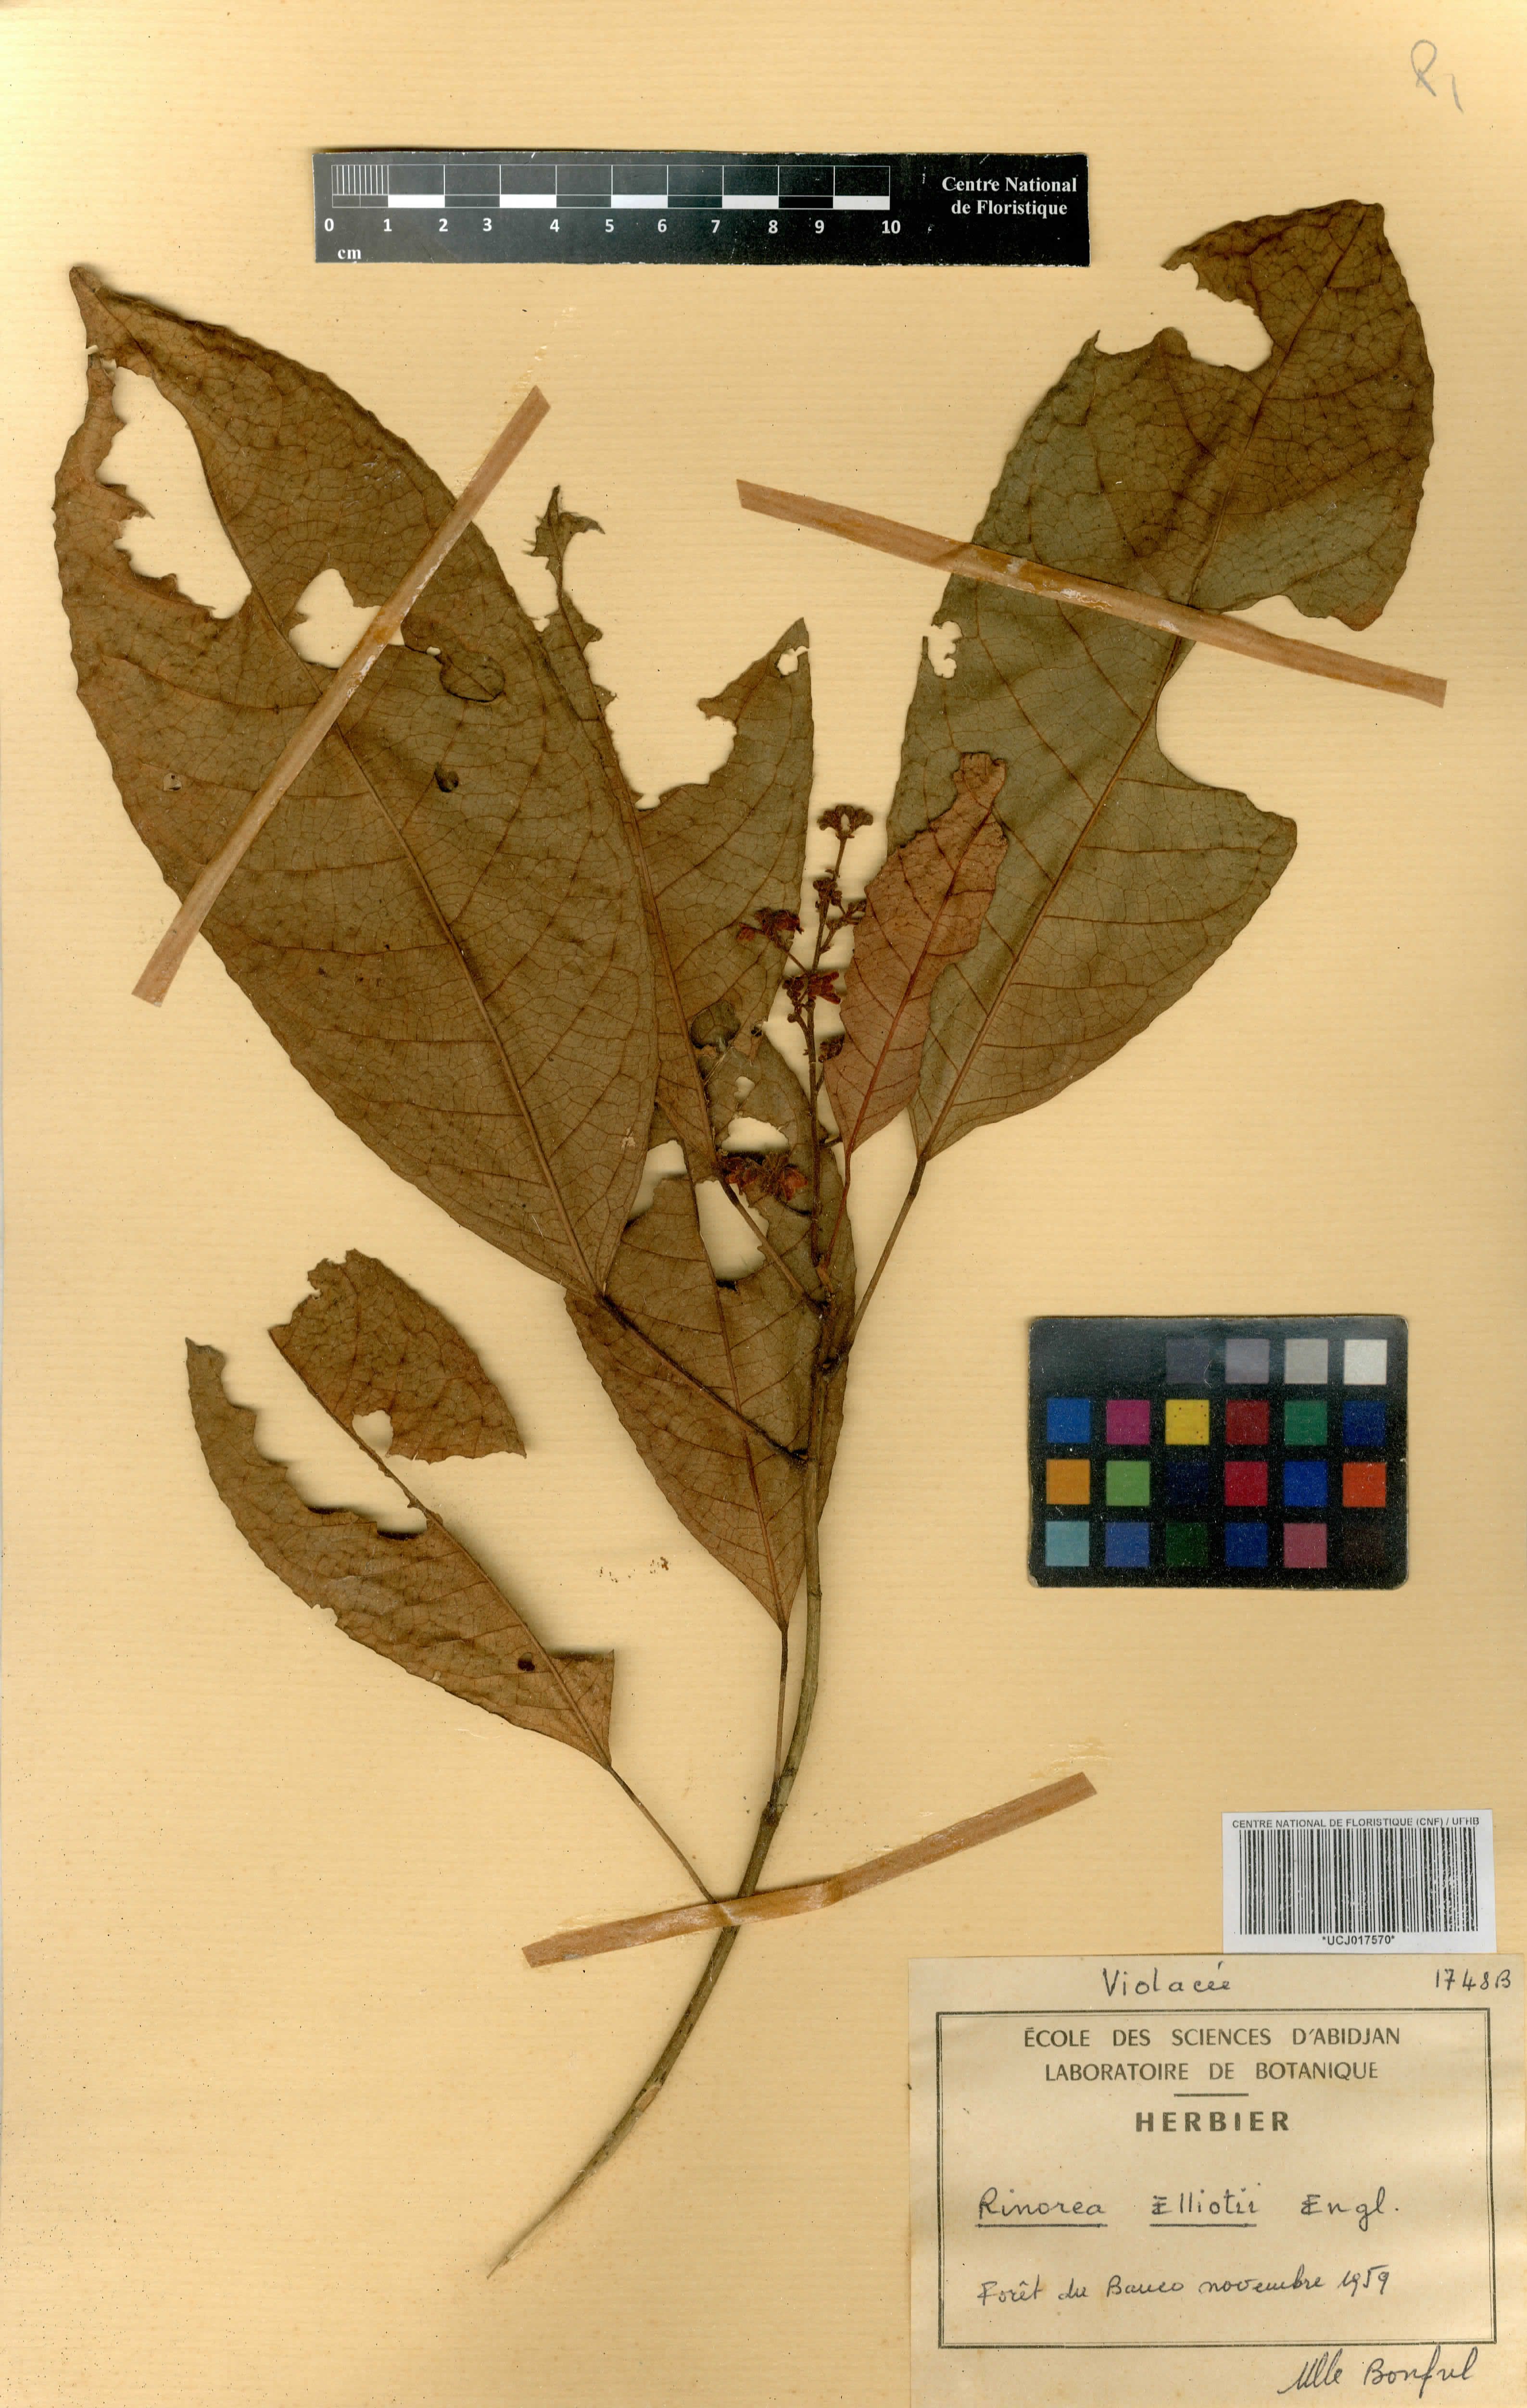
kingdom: Plantae
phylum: Tracheophyta
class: Magnoliopsida
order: Malpighiales
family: Violaceae
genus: Rinorea
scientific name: Rinorea welwitschii
